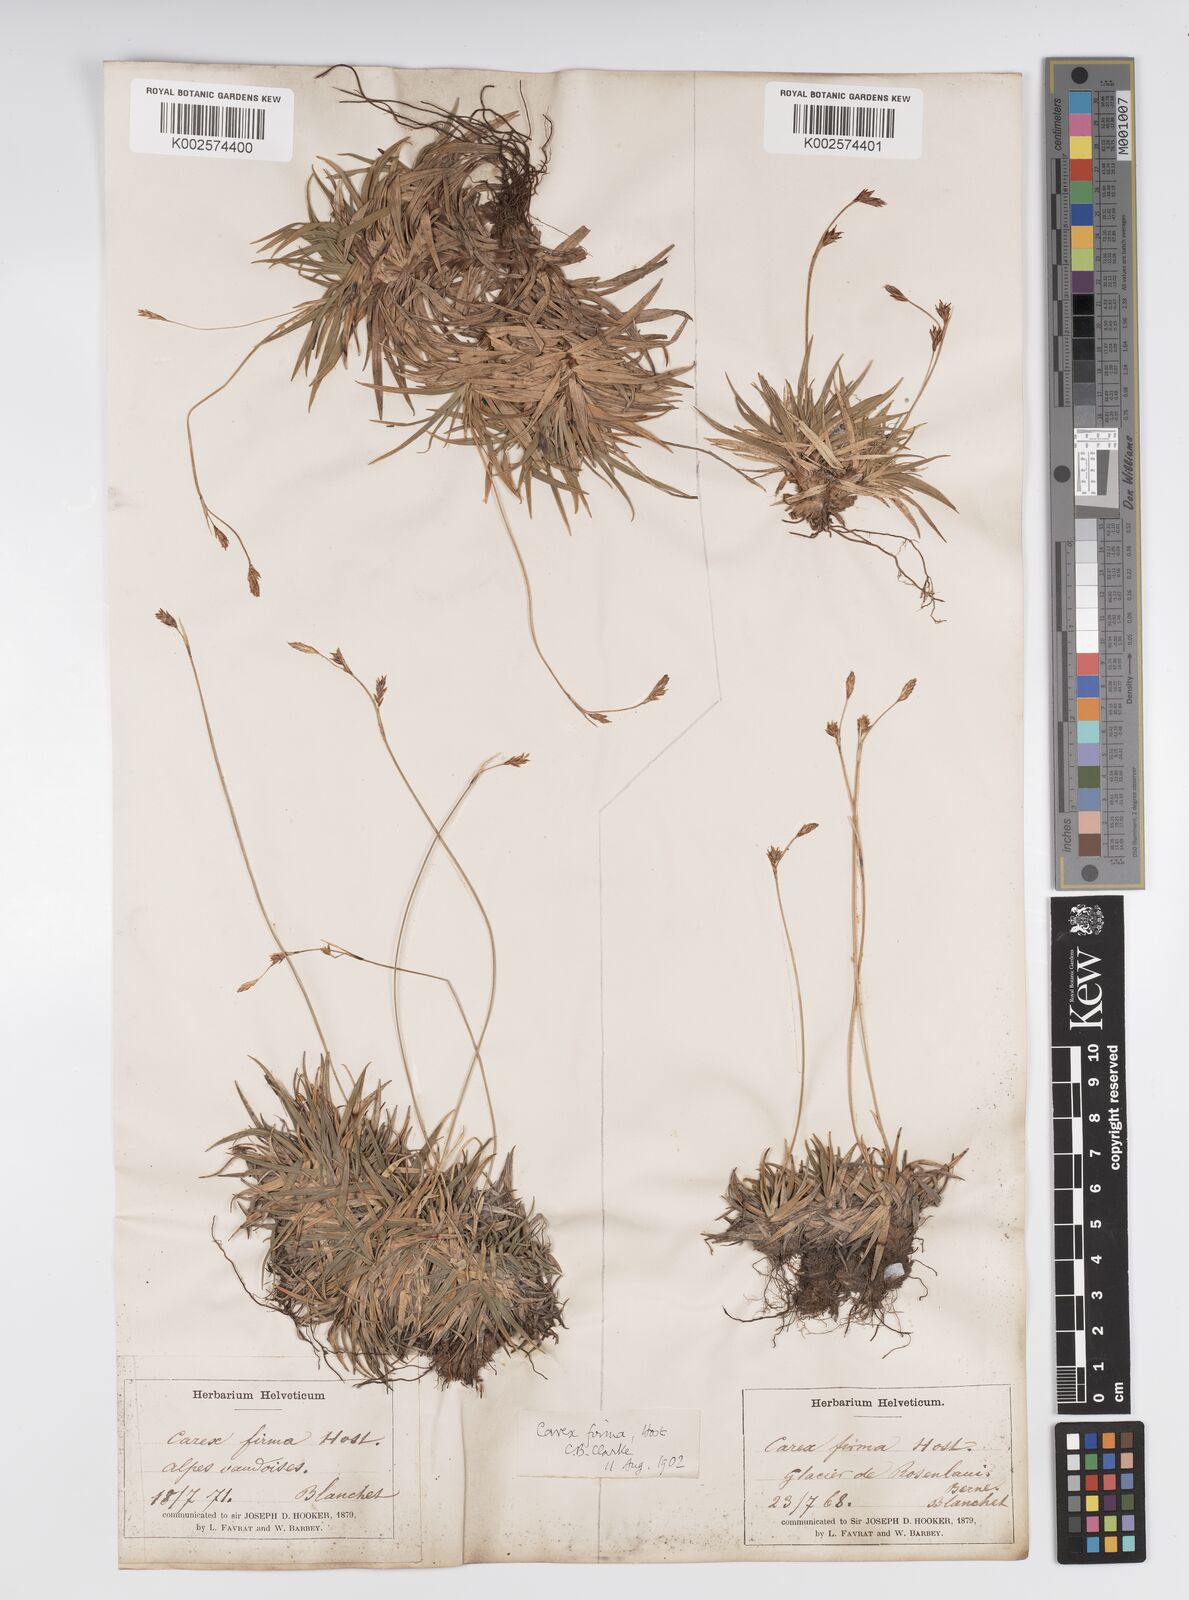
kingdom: Plantae
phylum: Tracheophyta
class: Liliopsida
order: Poales
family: Cyperaceae
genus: Carex
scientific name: Carex firma
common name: Dwarf pillow sedge
